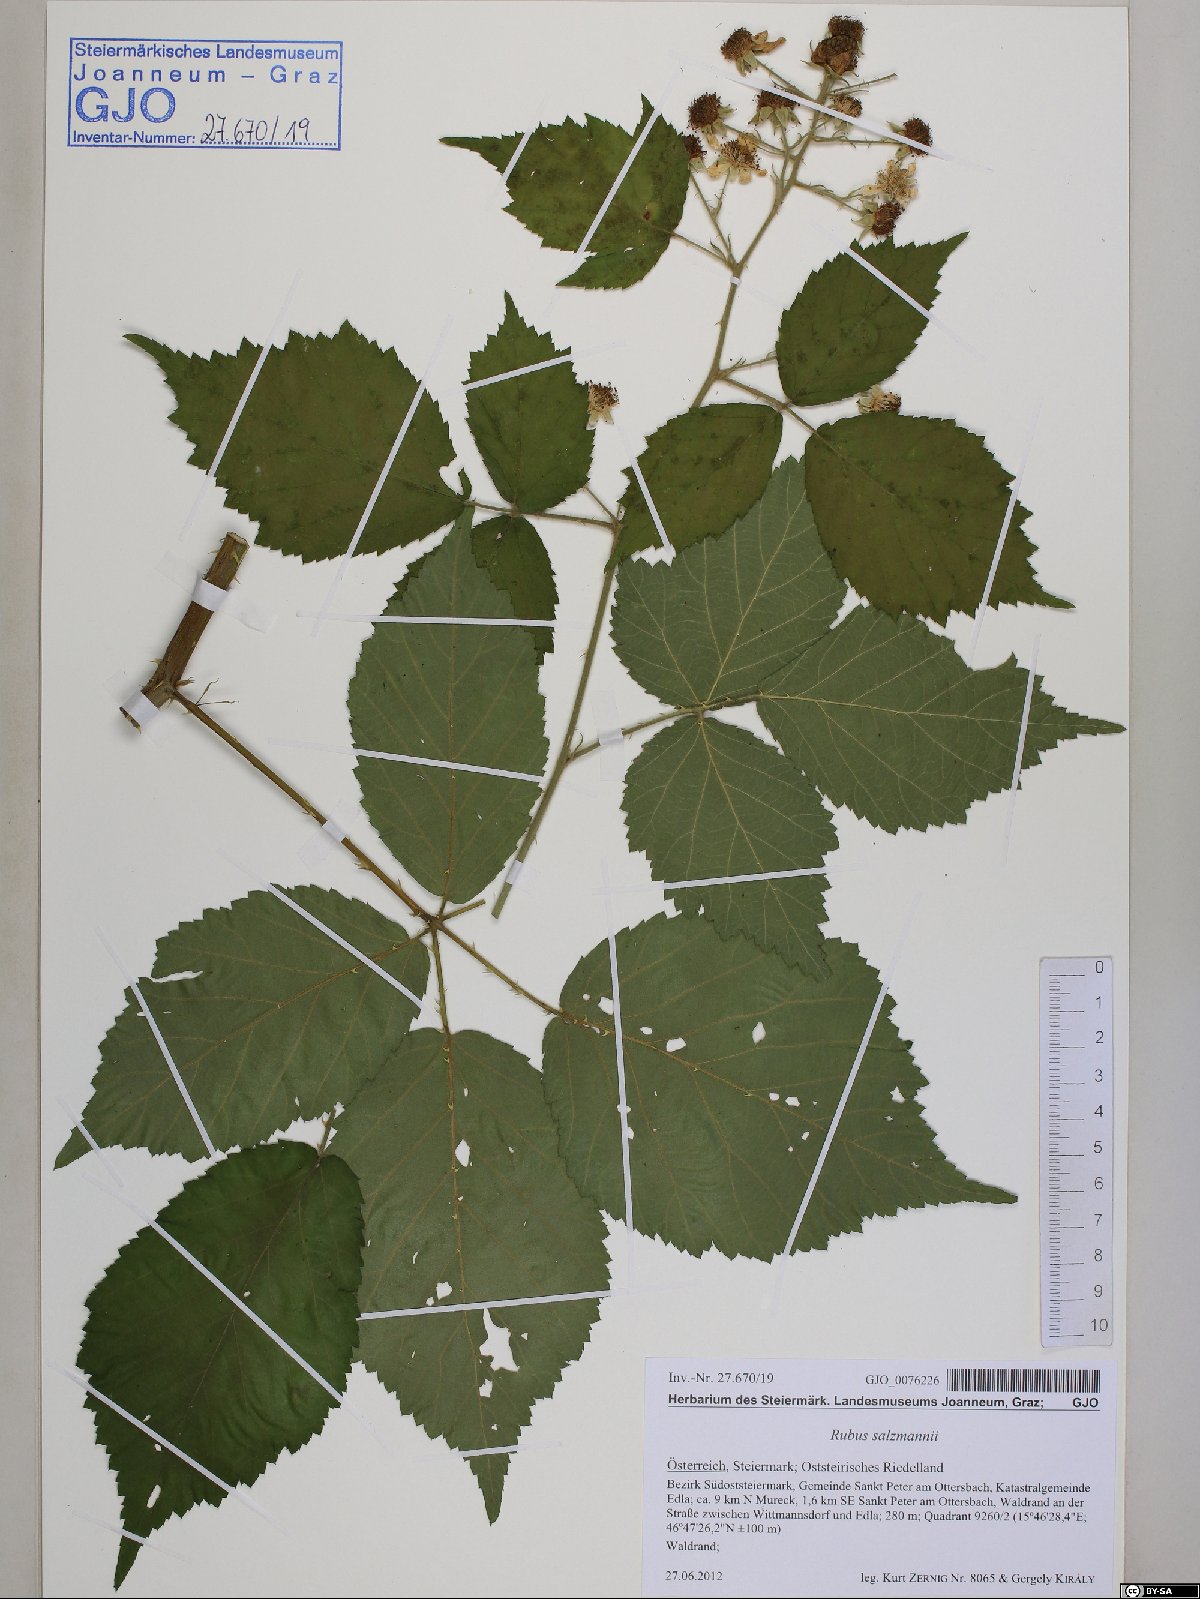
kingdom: Plantae
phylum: Tracheophyta
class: Magnoliopsida
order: Rosales
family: Rosaceae
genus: Rubus
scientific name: Rubus salzmannii
